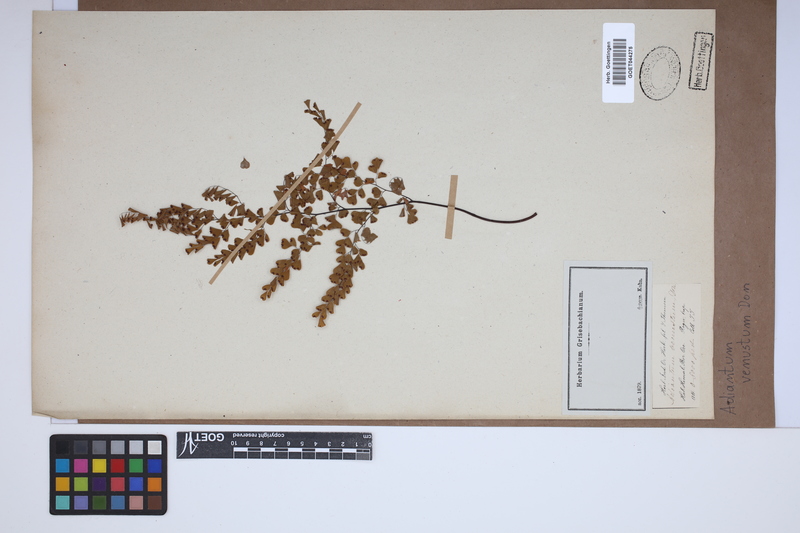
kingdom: Plantae
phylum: Tracheophyta
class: Polypodiopsida
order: Polypodiales
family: Pteridaceae
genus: Adiantum
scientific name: Adiantum venustum
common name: Evergreen maidenhair
